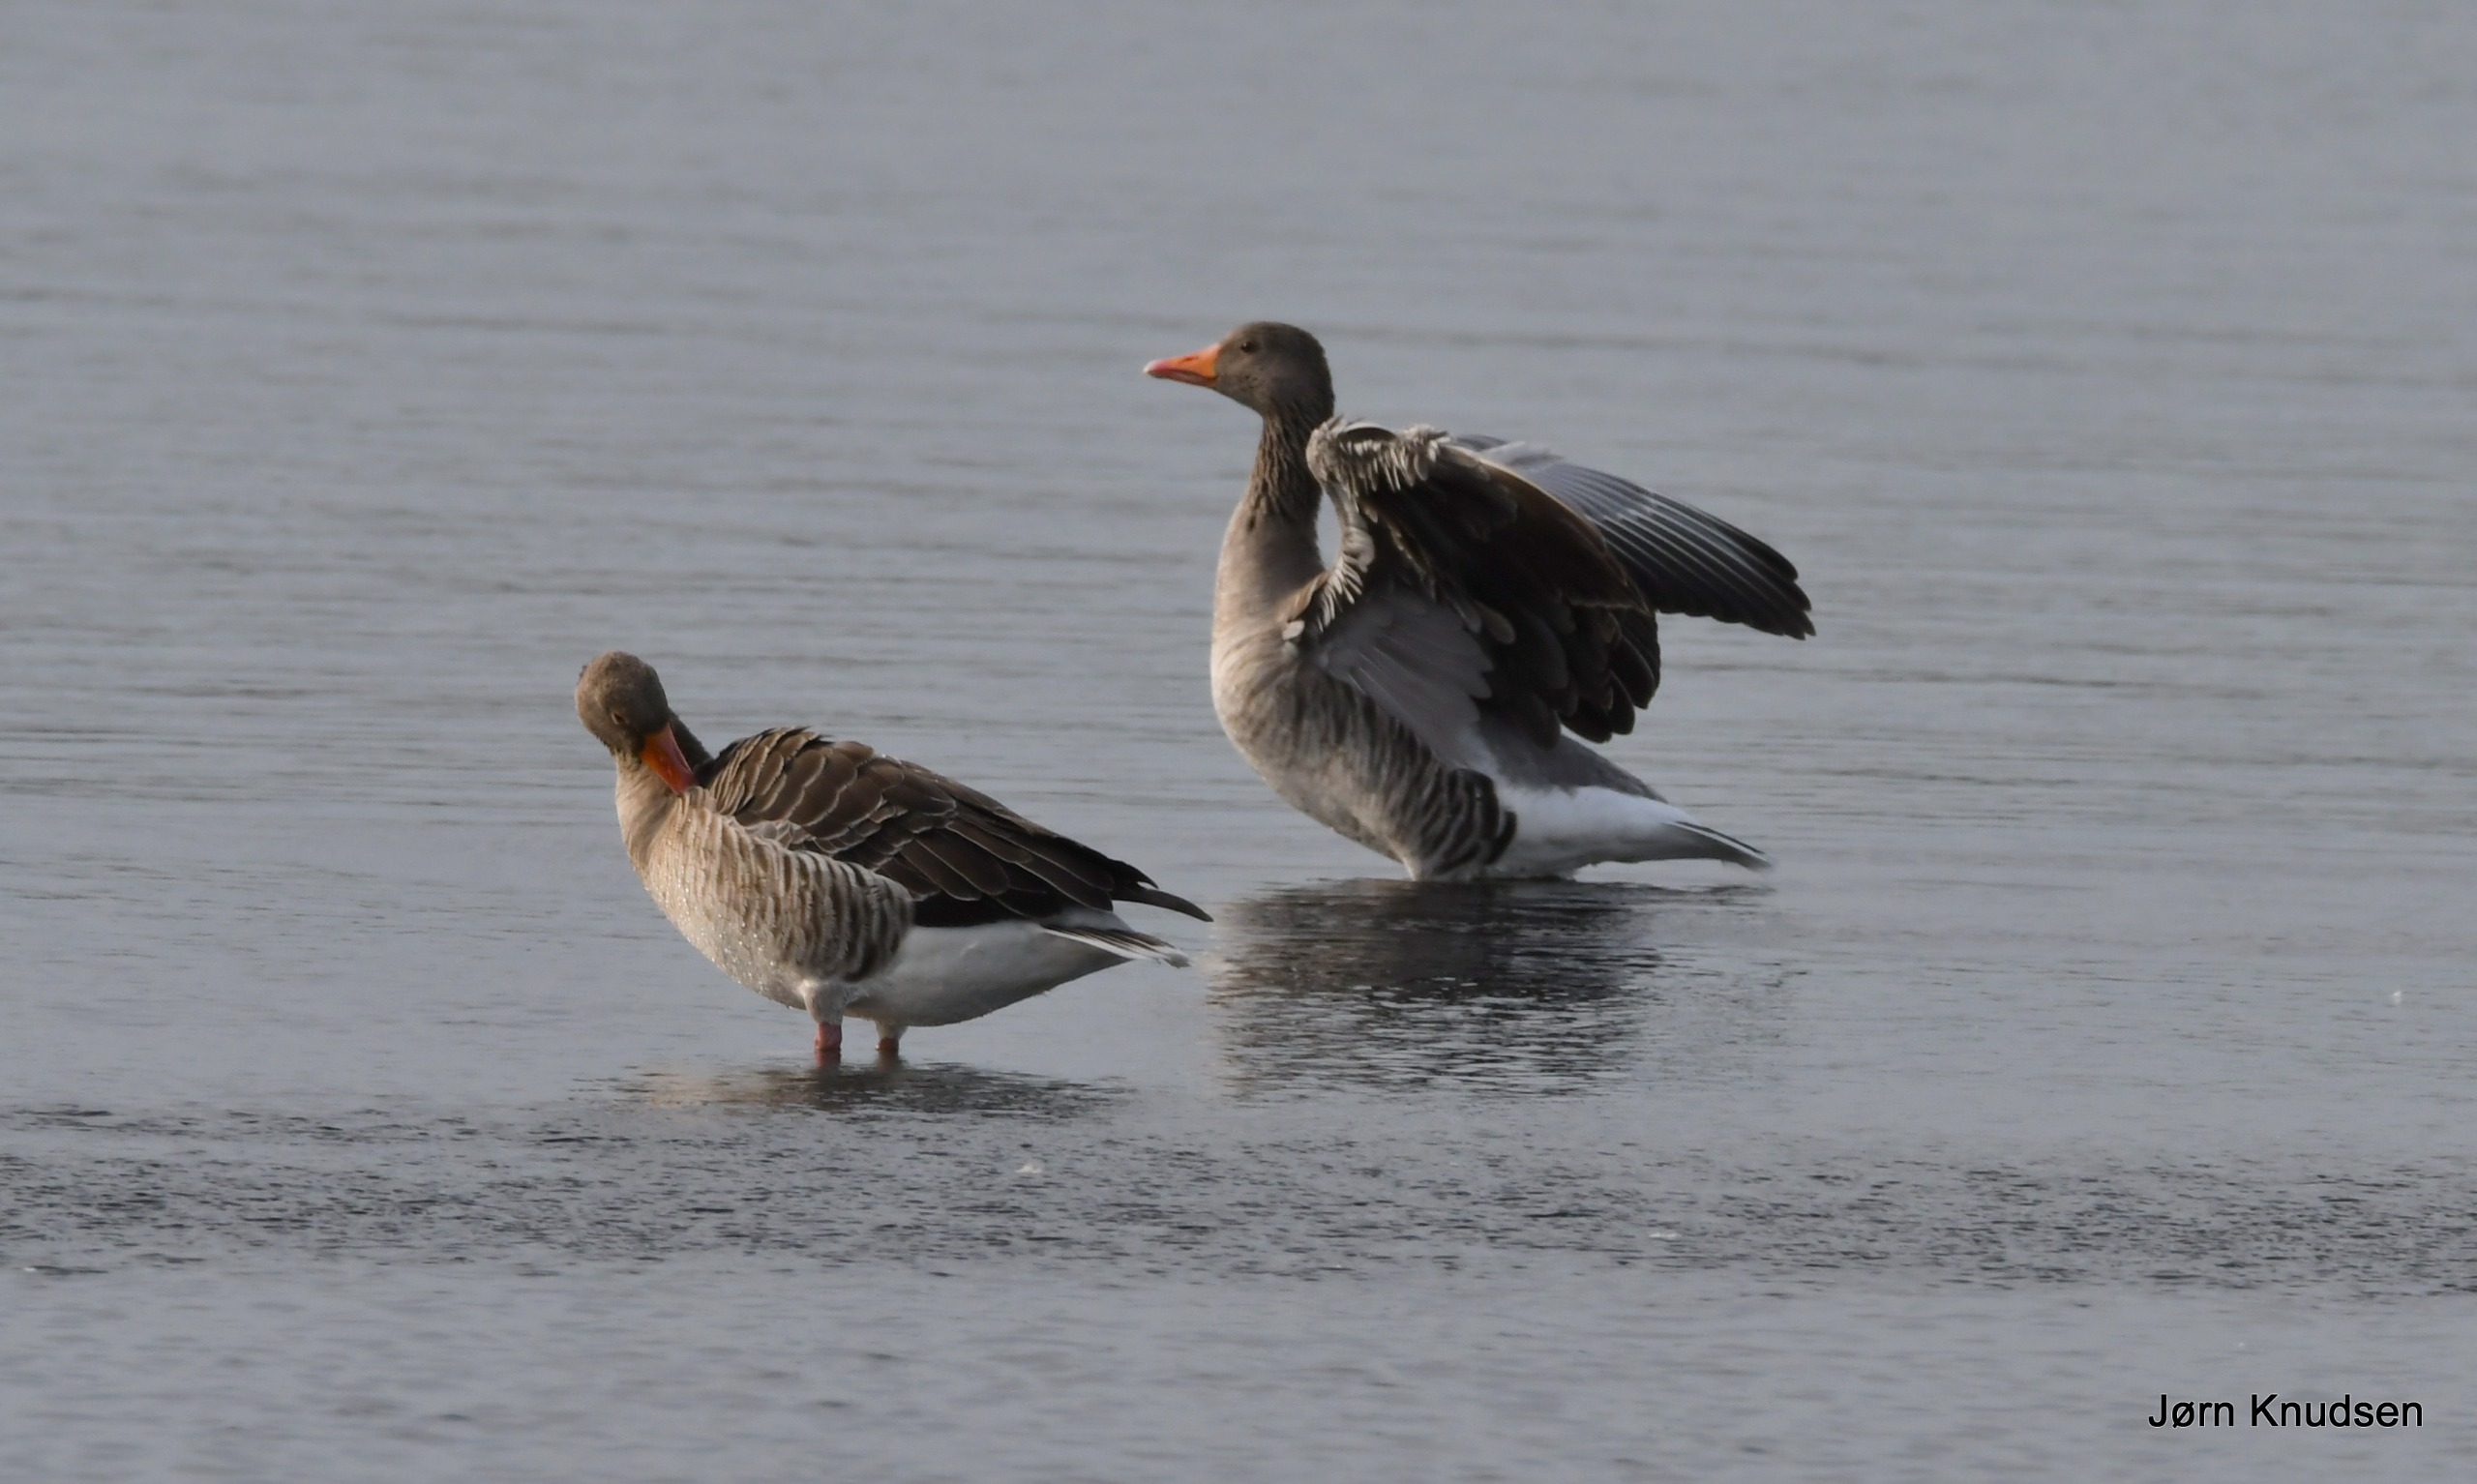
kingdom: Animalia
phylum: Chordata
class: Aves
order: Anseriformes
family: Anatidae
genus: Anser
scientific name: Anser anser
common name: Grågås
